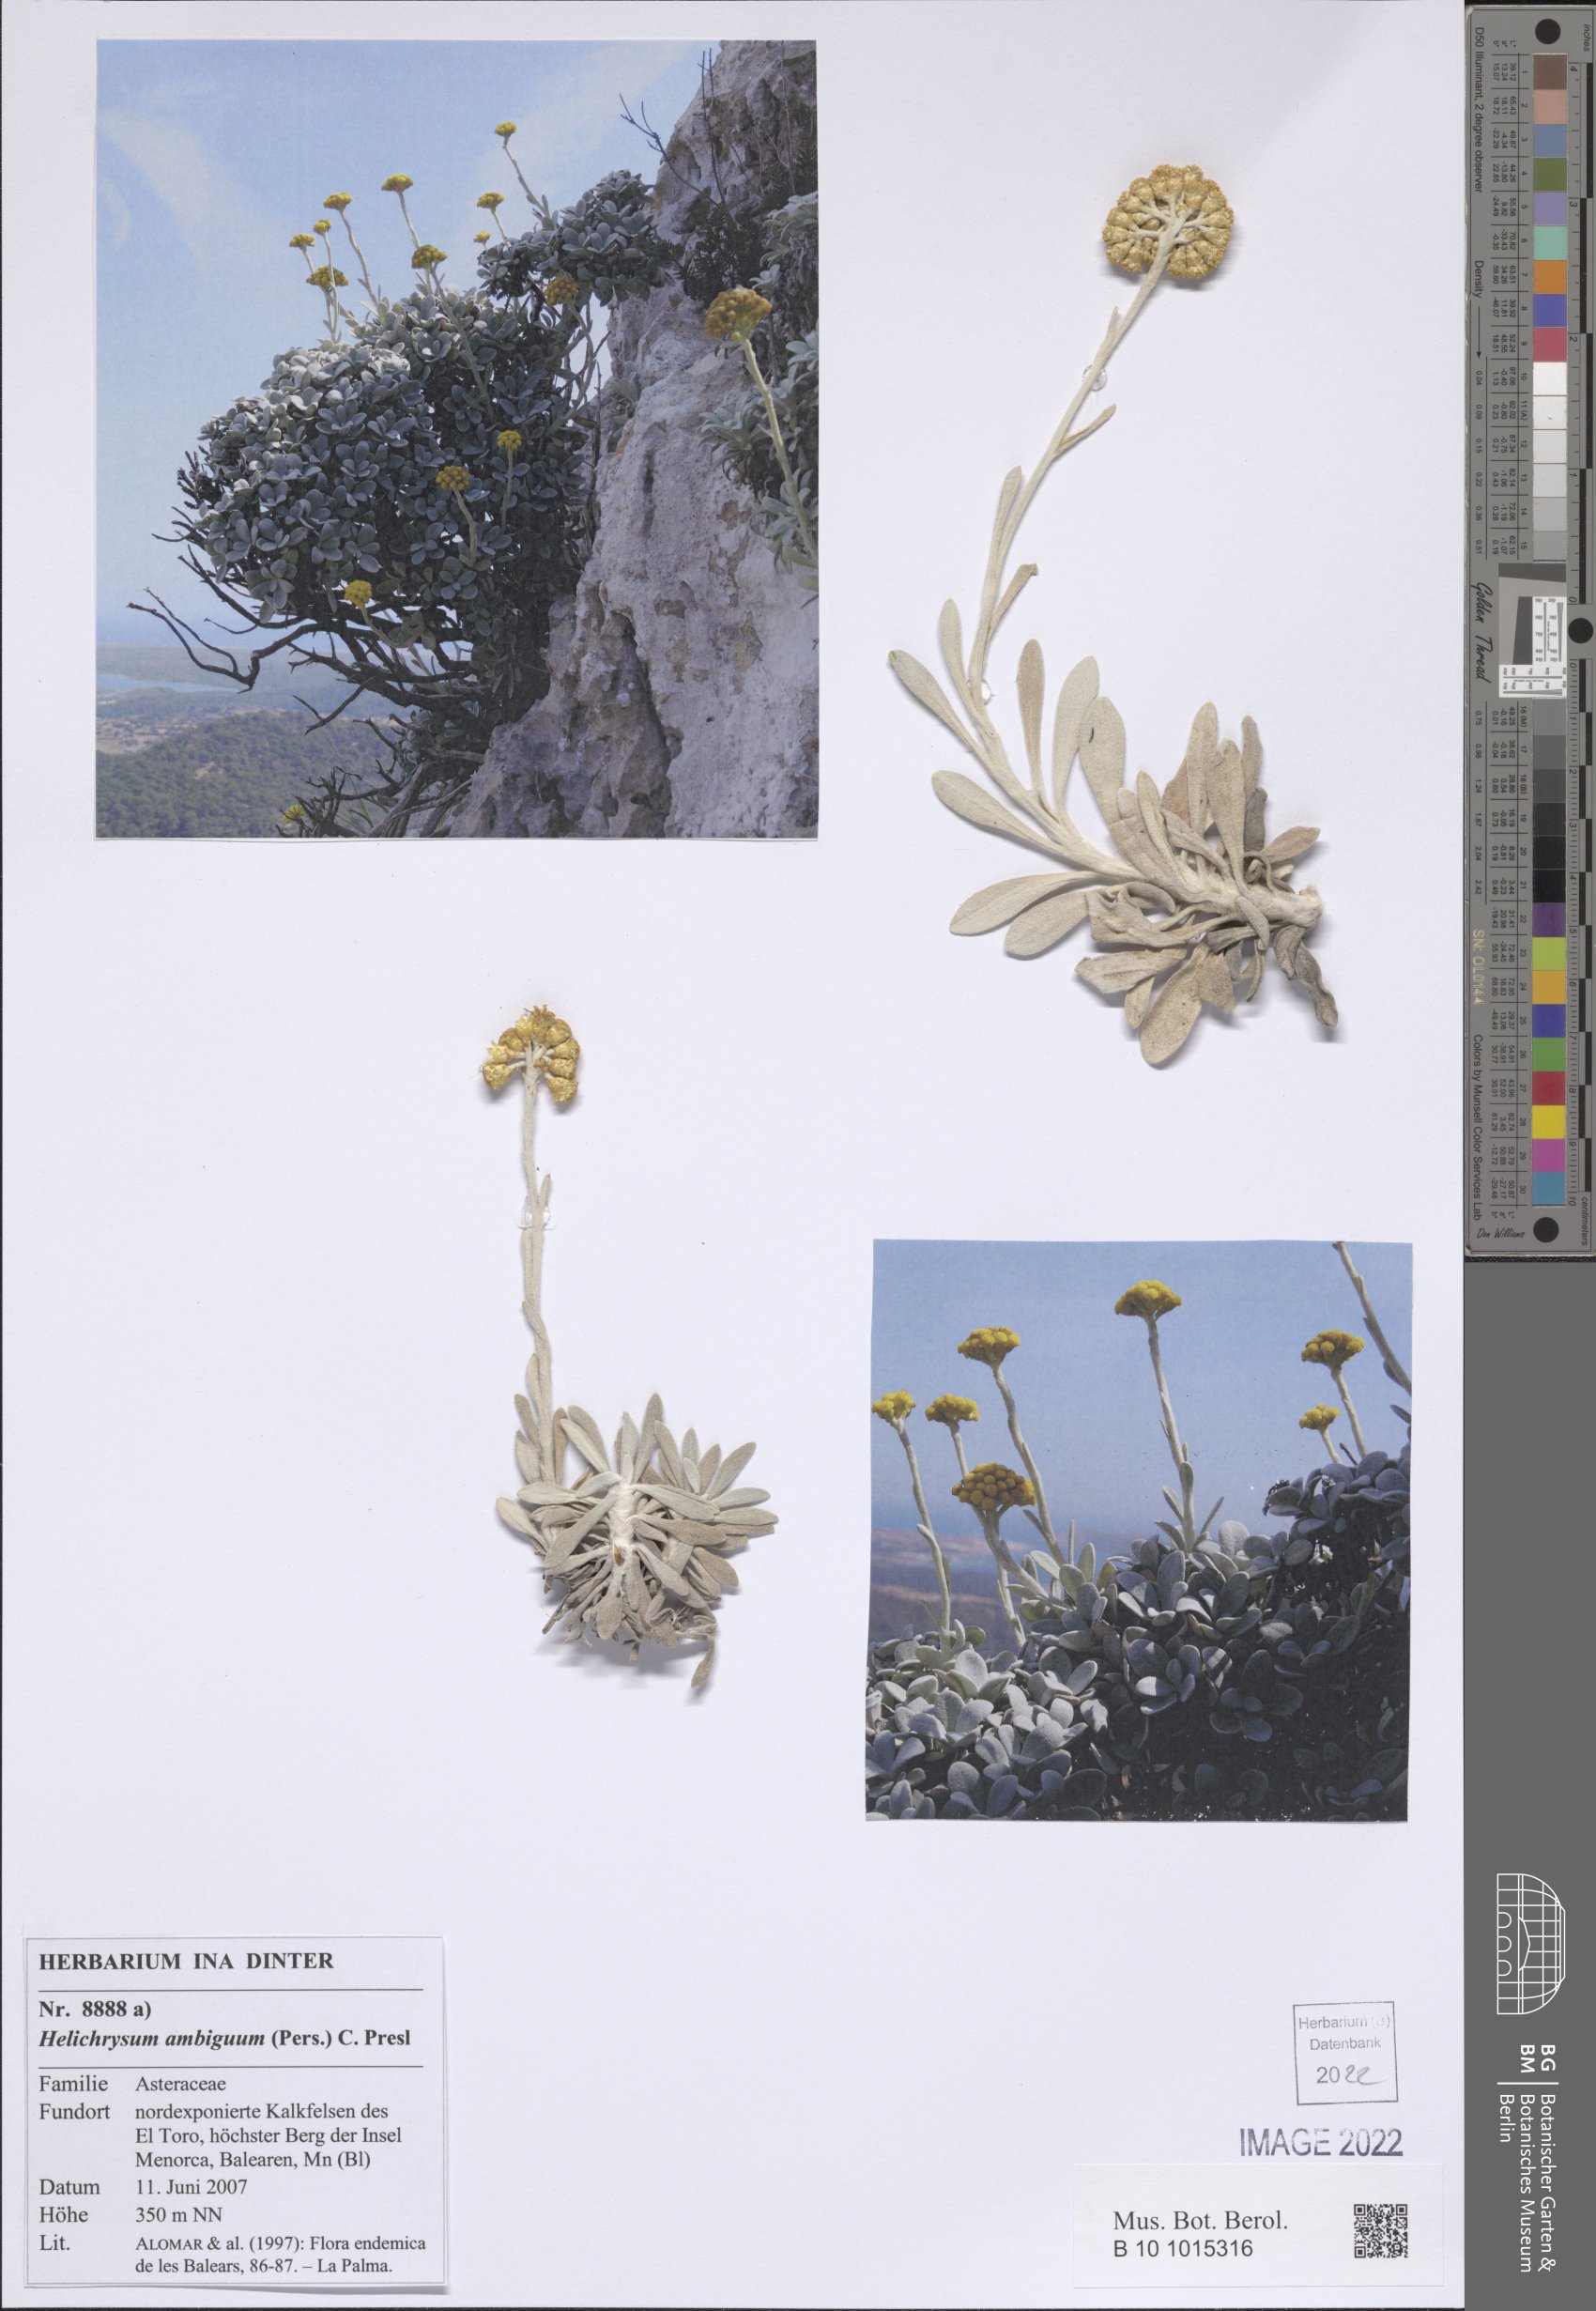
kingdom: Plantae
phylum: Tracheophyta
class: Magnoliopsida
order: Asterales
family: Asteraceae
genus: Helichrysum
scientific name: Helichrysum ambiguum
